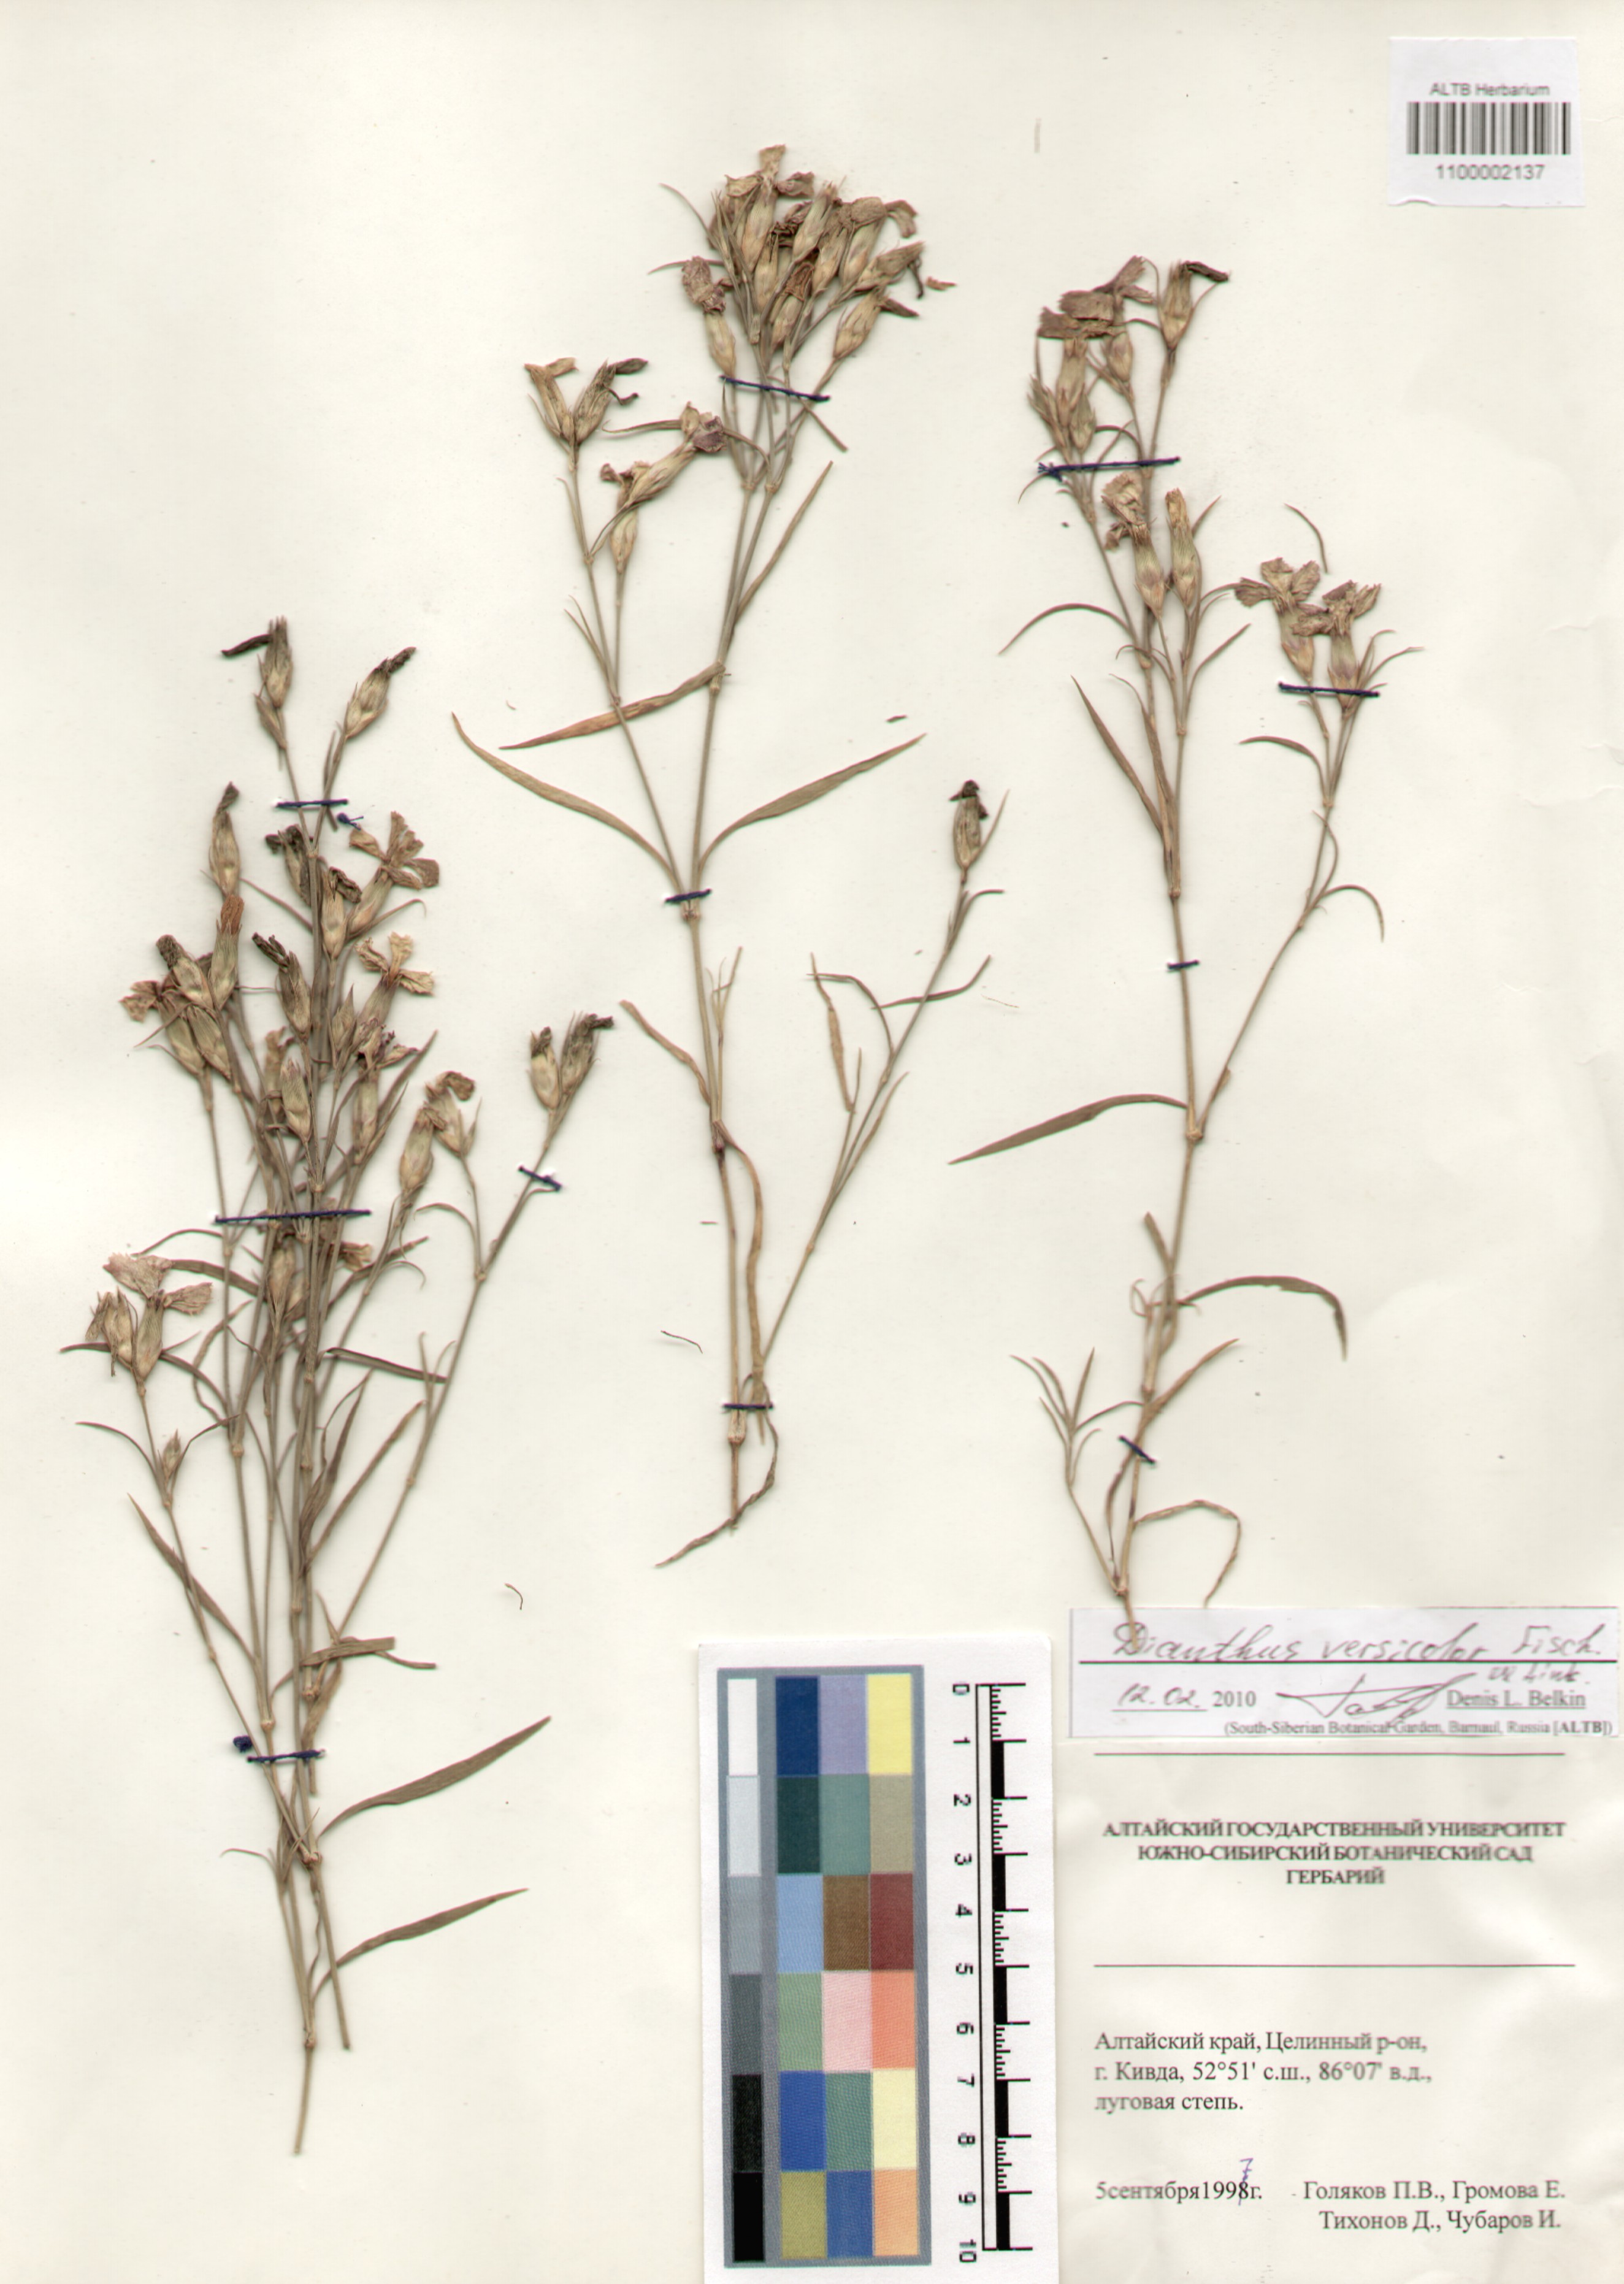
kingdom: Plantae
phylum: Tracheophyta
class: Magnoliopsida
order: Caryophyllales
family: Caryophyllaceae
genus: Dianthus
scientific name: Dianthus chinensis
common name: Rainbow pink
